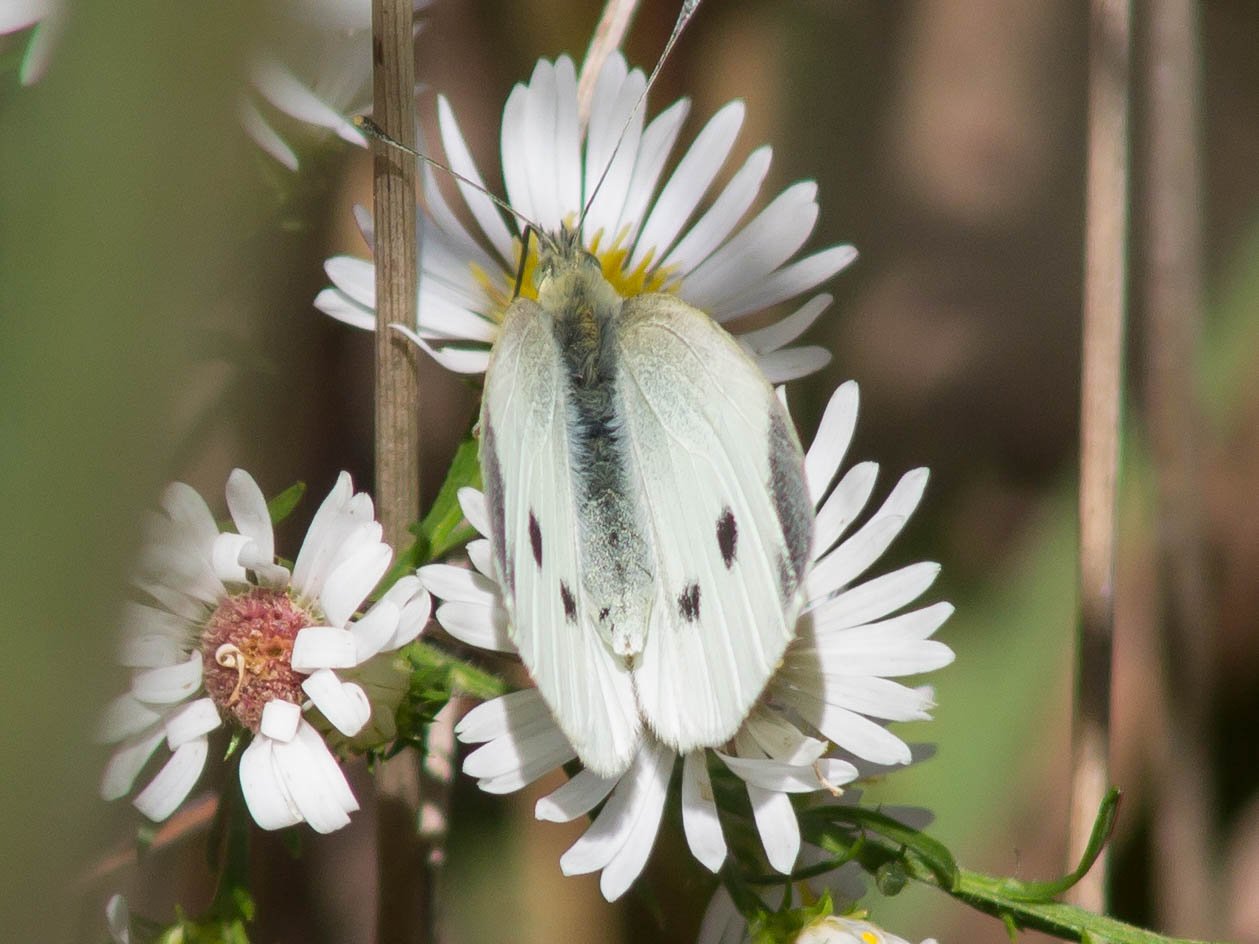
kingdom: Animalia
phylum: Arthropoda
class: Insecta
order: Lepidoptera
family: Pieridae
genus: Pieris
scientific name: Pieris rapae
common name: Cabbage White
